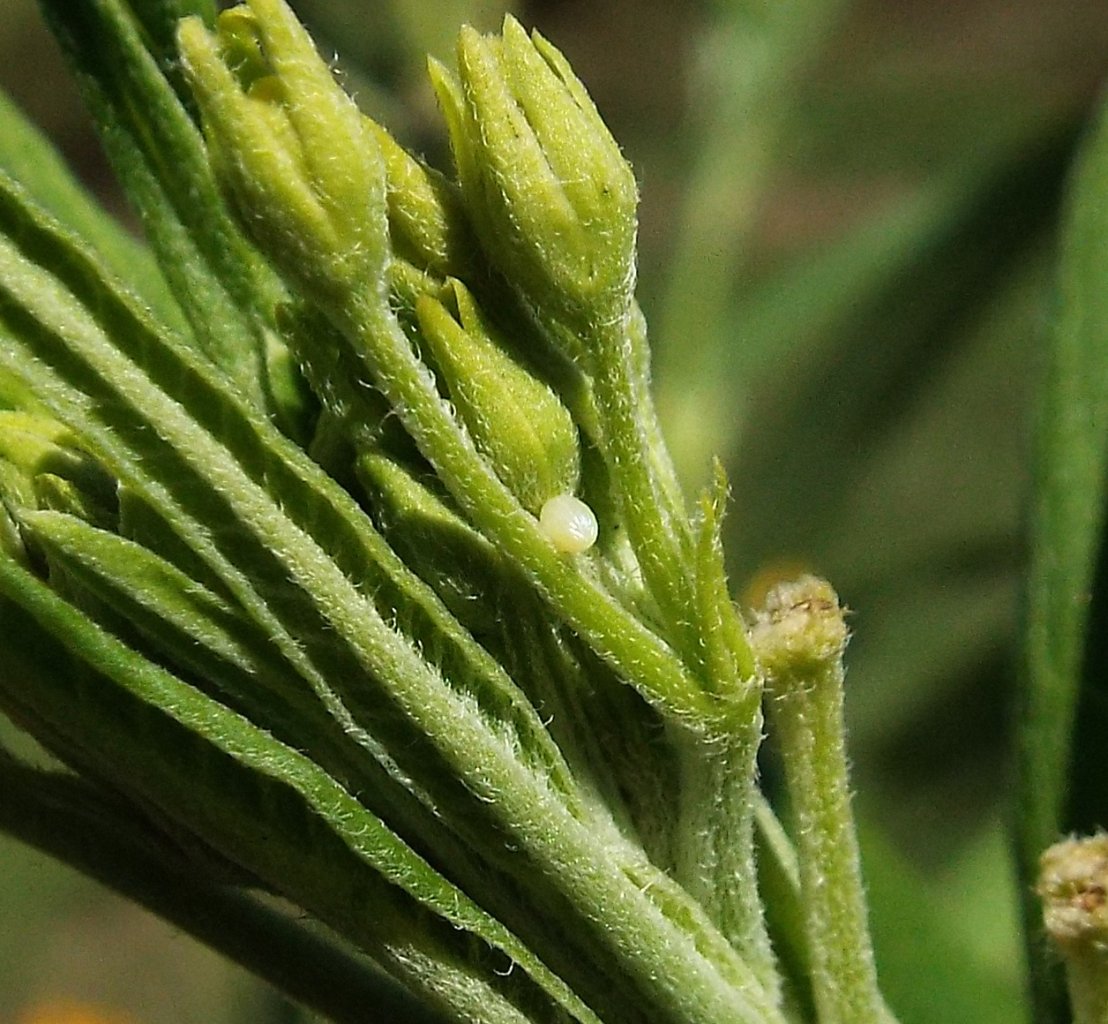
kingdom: Animalia
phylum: Arthropoda
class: Insecta
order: Lepidoptera
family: Nymphalidae
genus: Danaus
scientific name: Danaus plexippus
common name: Monarch
